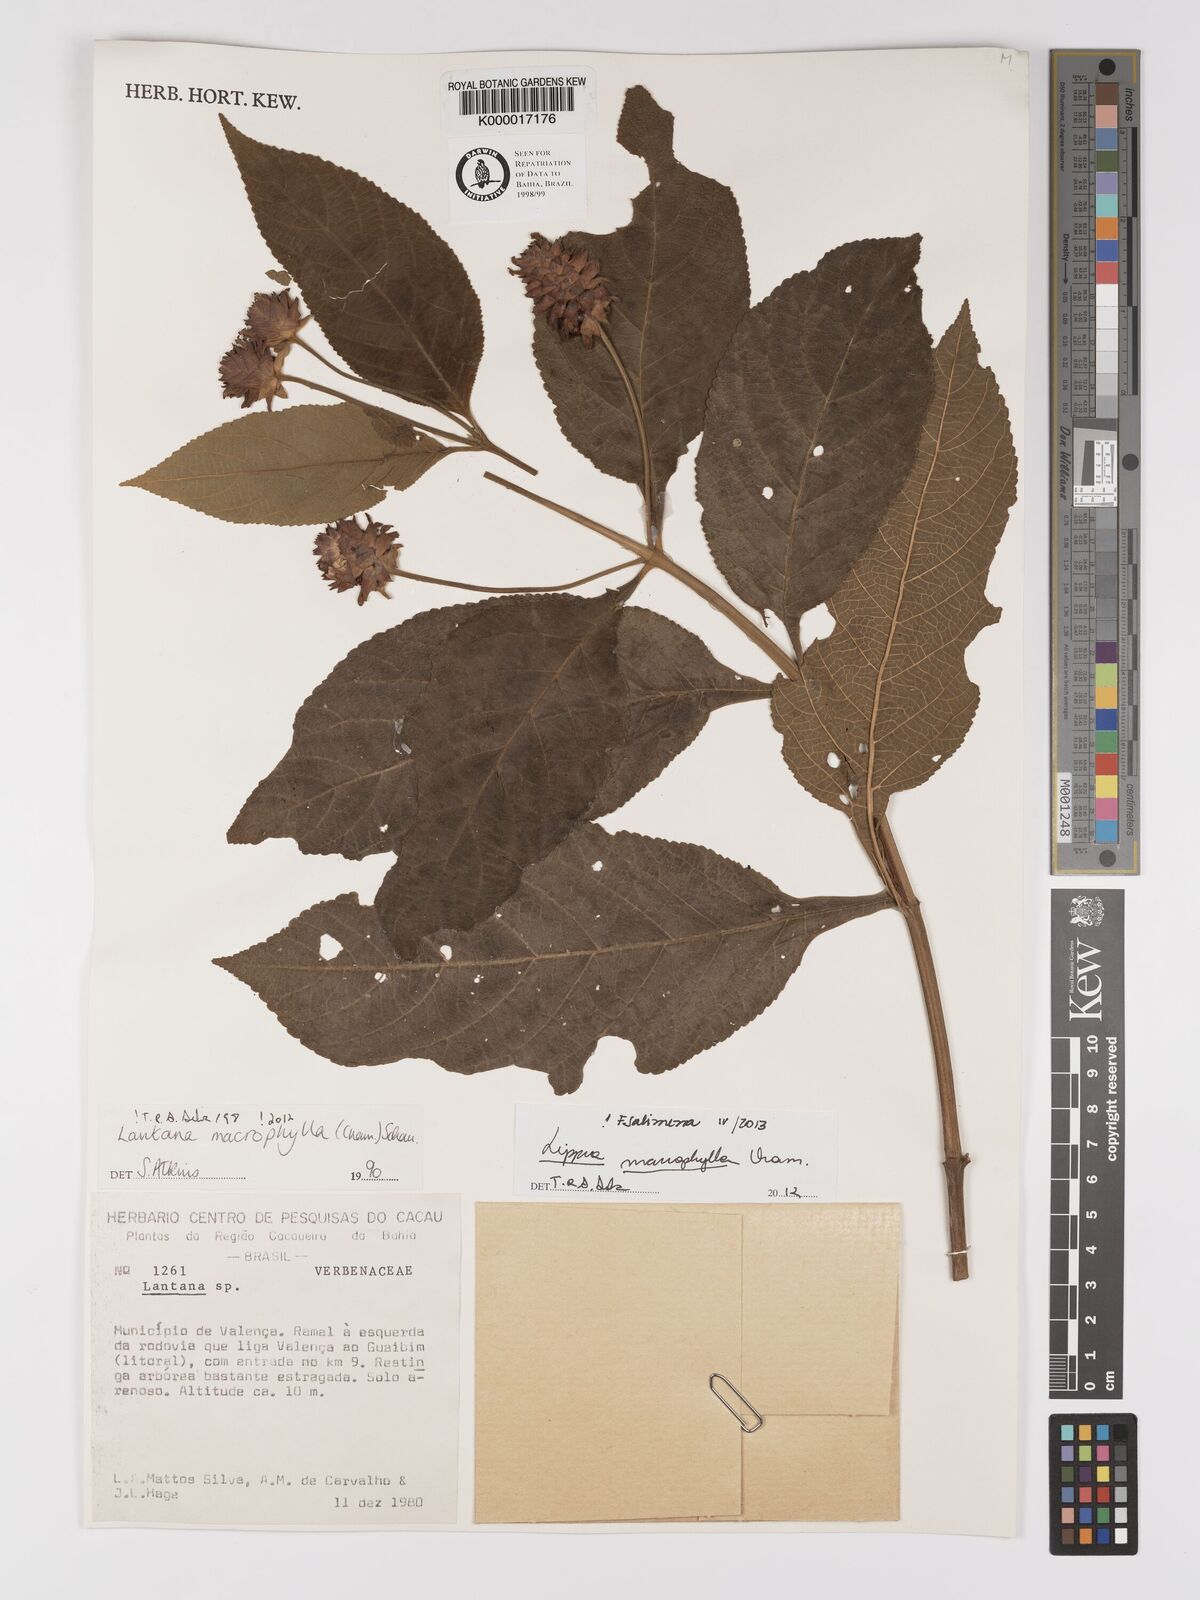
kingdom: Plantae
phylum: Tracheophyta
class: Magnoliopsida
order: Lamiales
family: Verbenaceae
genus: Lippia
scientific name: Lippia macrophylla
